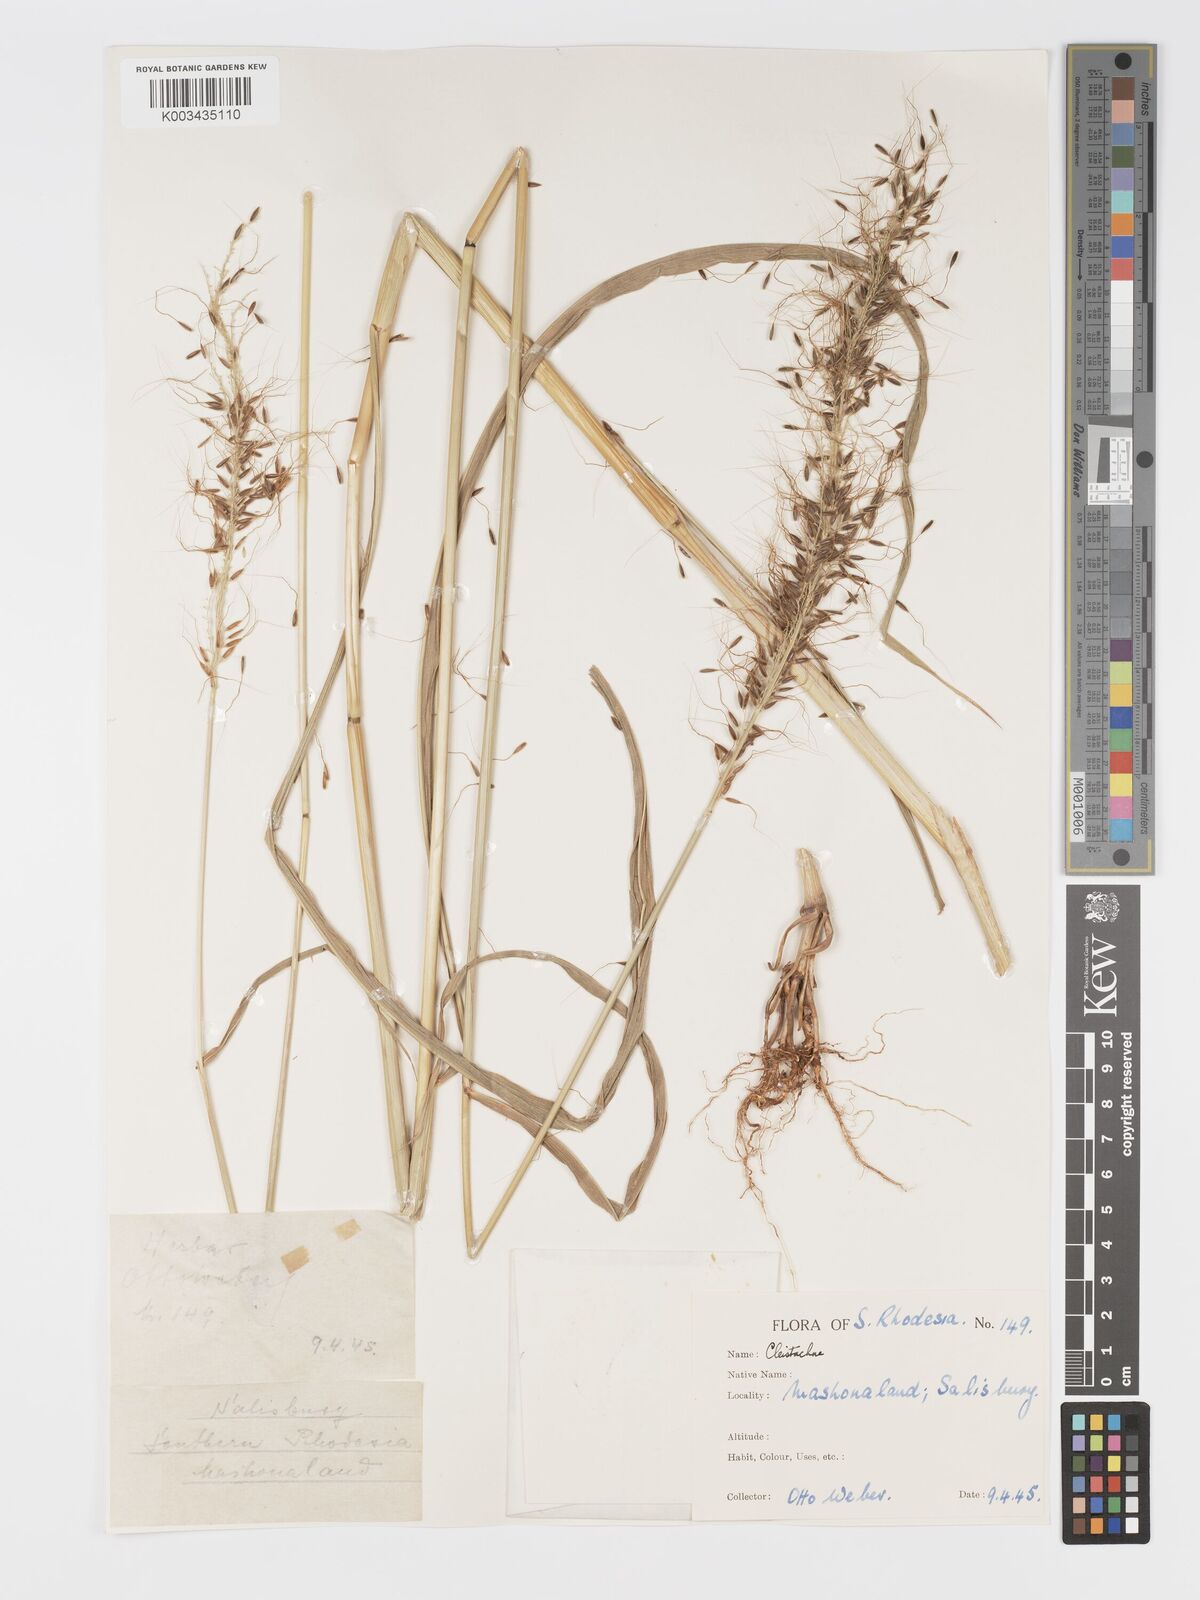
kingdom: Plantae
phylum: Tracheophyta
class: Liliopsida
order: Poales
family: Poaceae
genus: Cleistachne
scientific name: Cleistachne sorghoides
